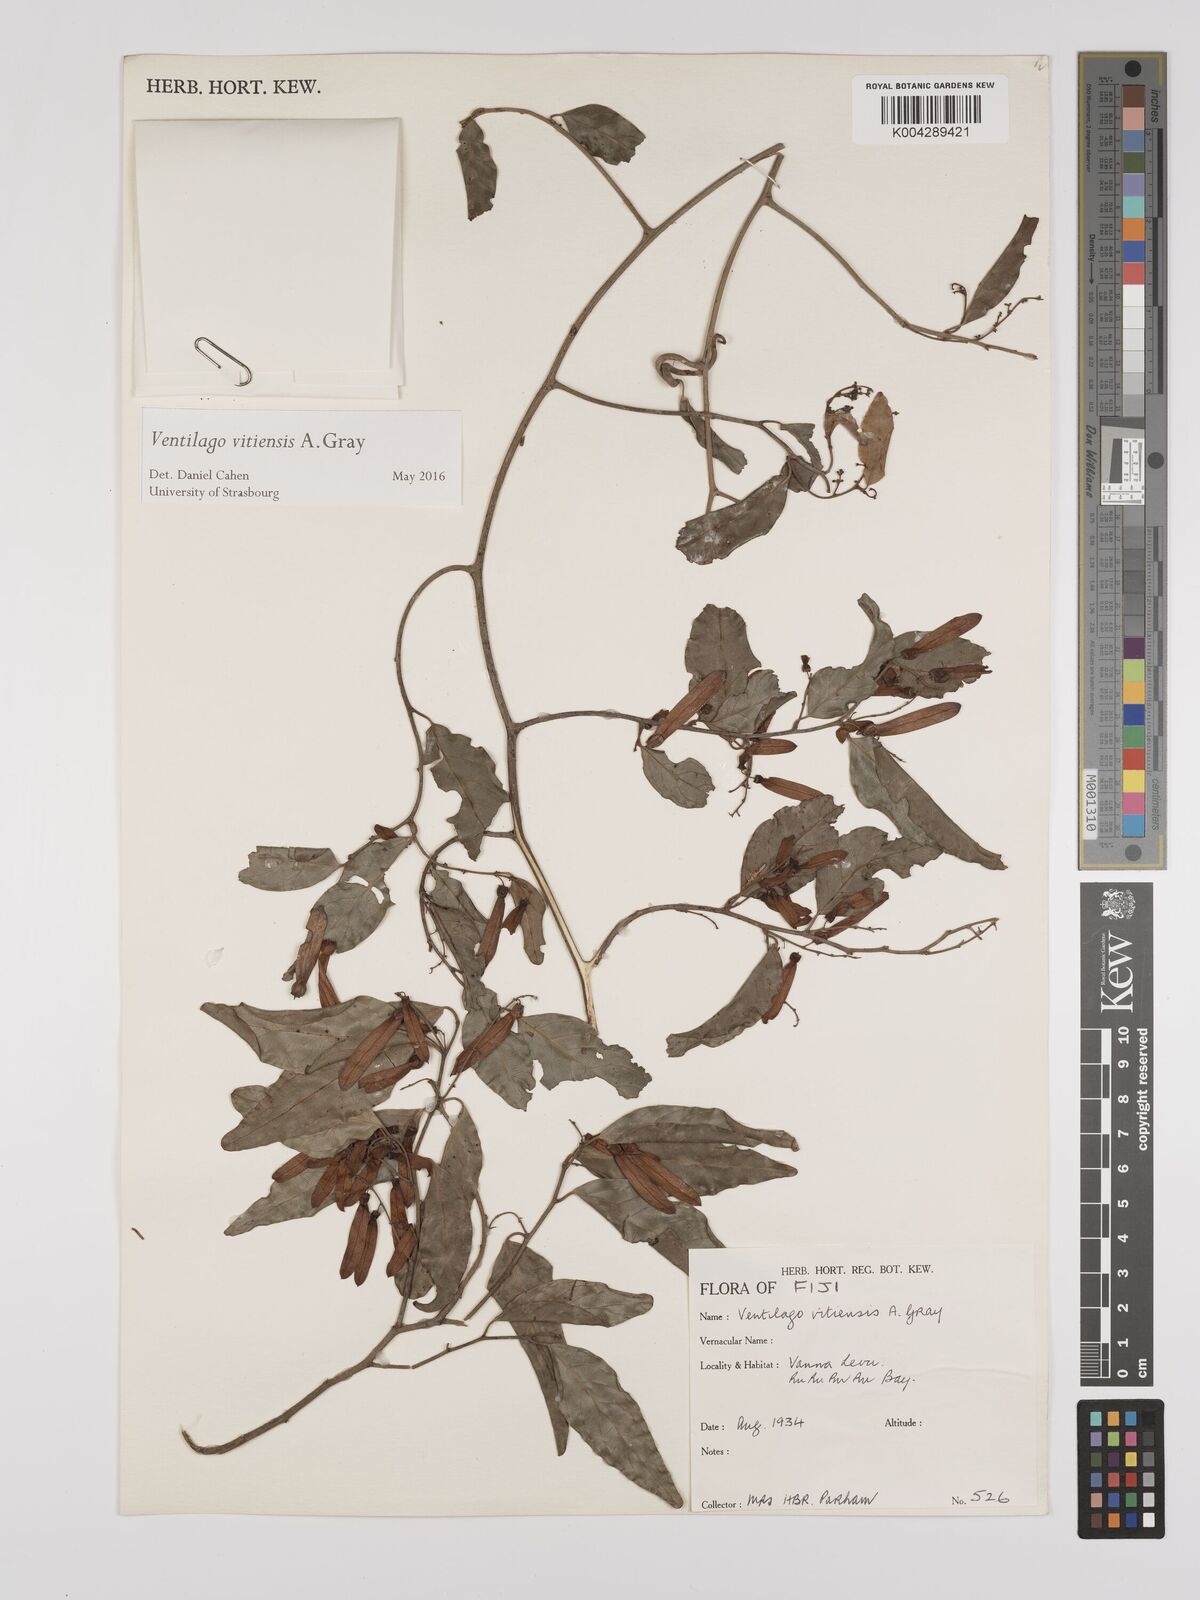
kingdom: Plantae
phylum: Tracheophyta
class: Magnoliopsida
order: Rosales
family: Rhamnaceae
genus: Ventilago
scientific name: Ventilago vitiensis
